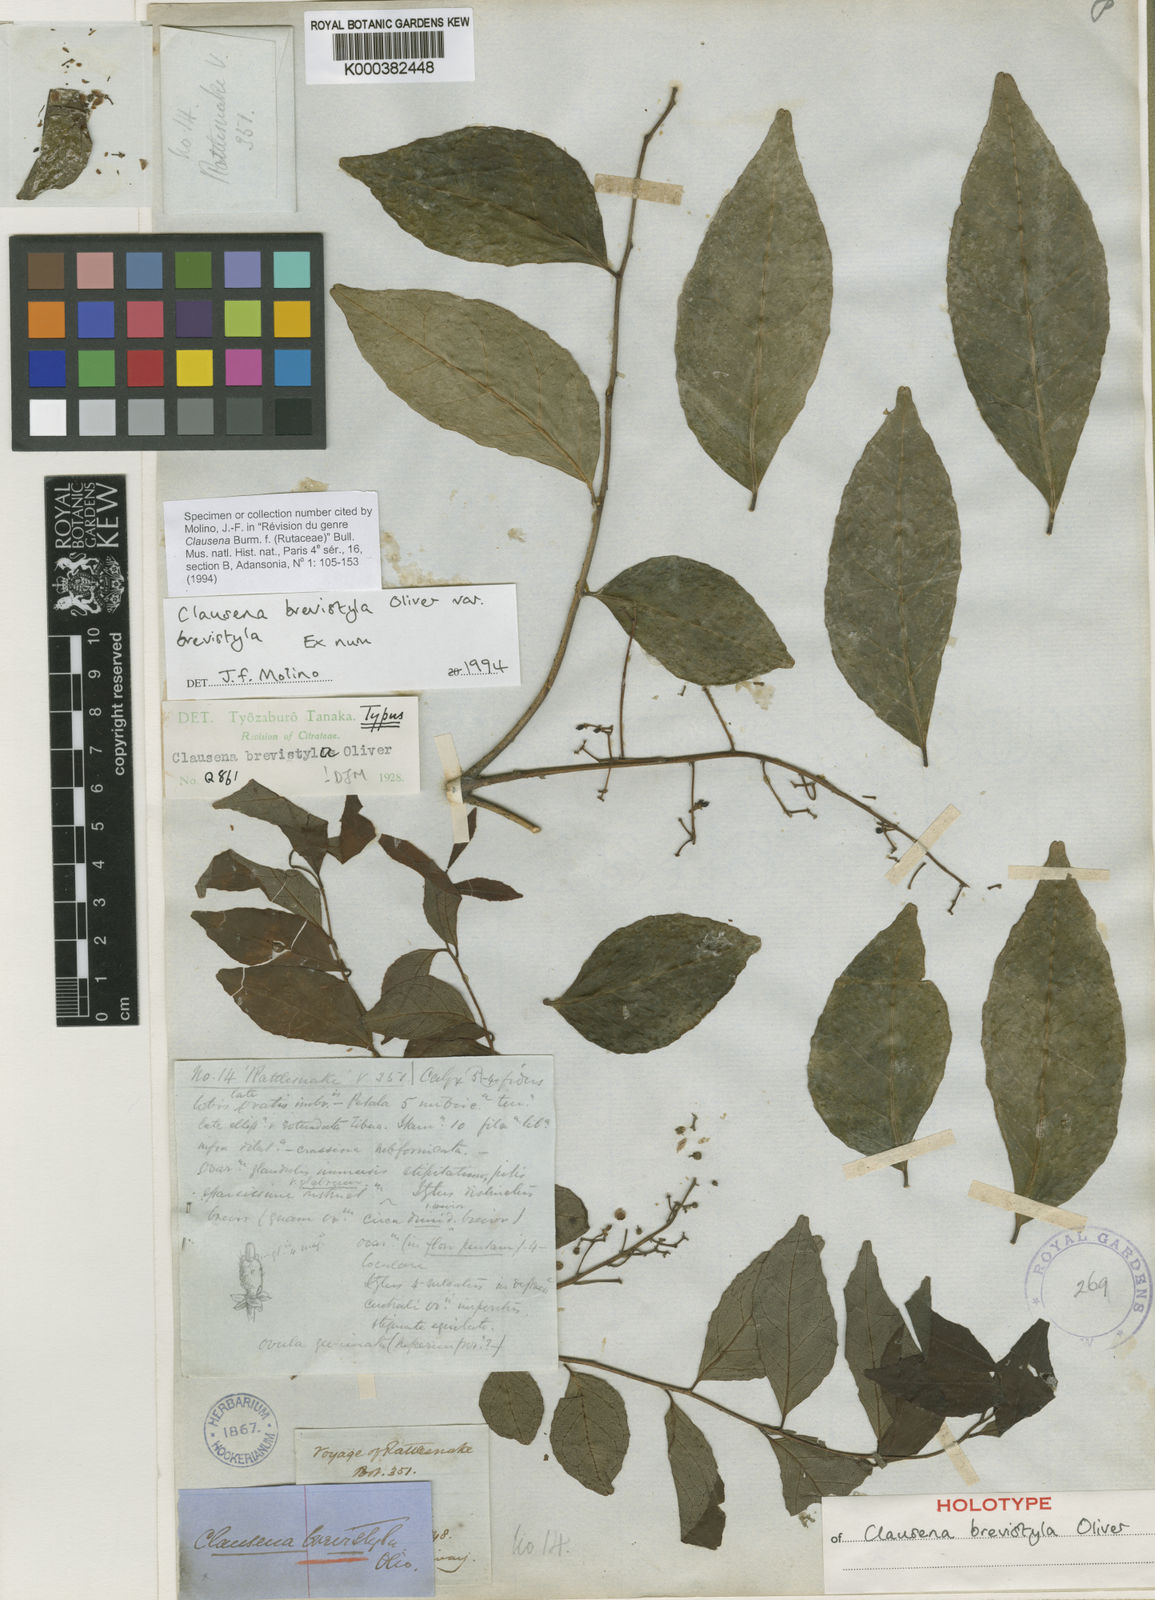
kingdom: Plantae
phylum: Tracheophyta
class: Magnoliopsida
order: Sapindales
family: Rutaceae
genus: Clausena
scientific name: Clausena brevistyla
